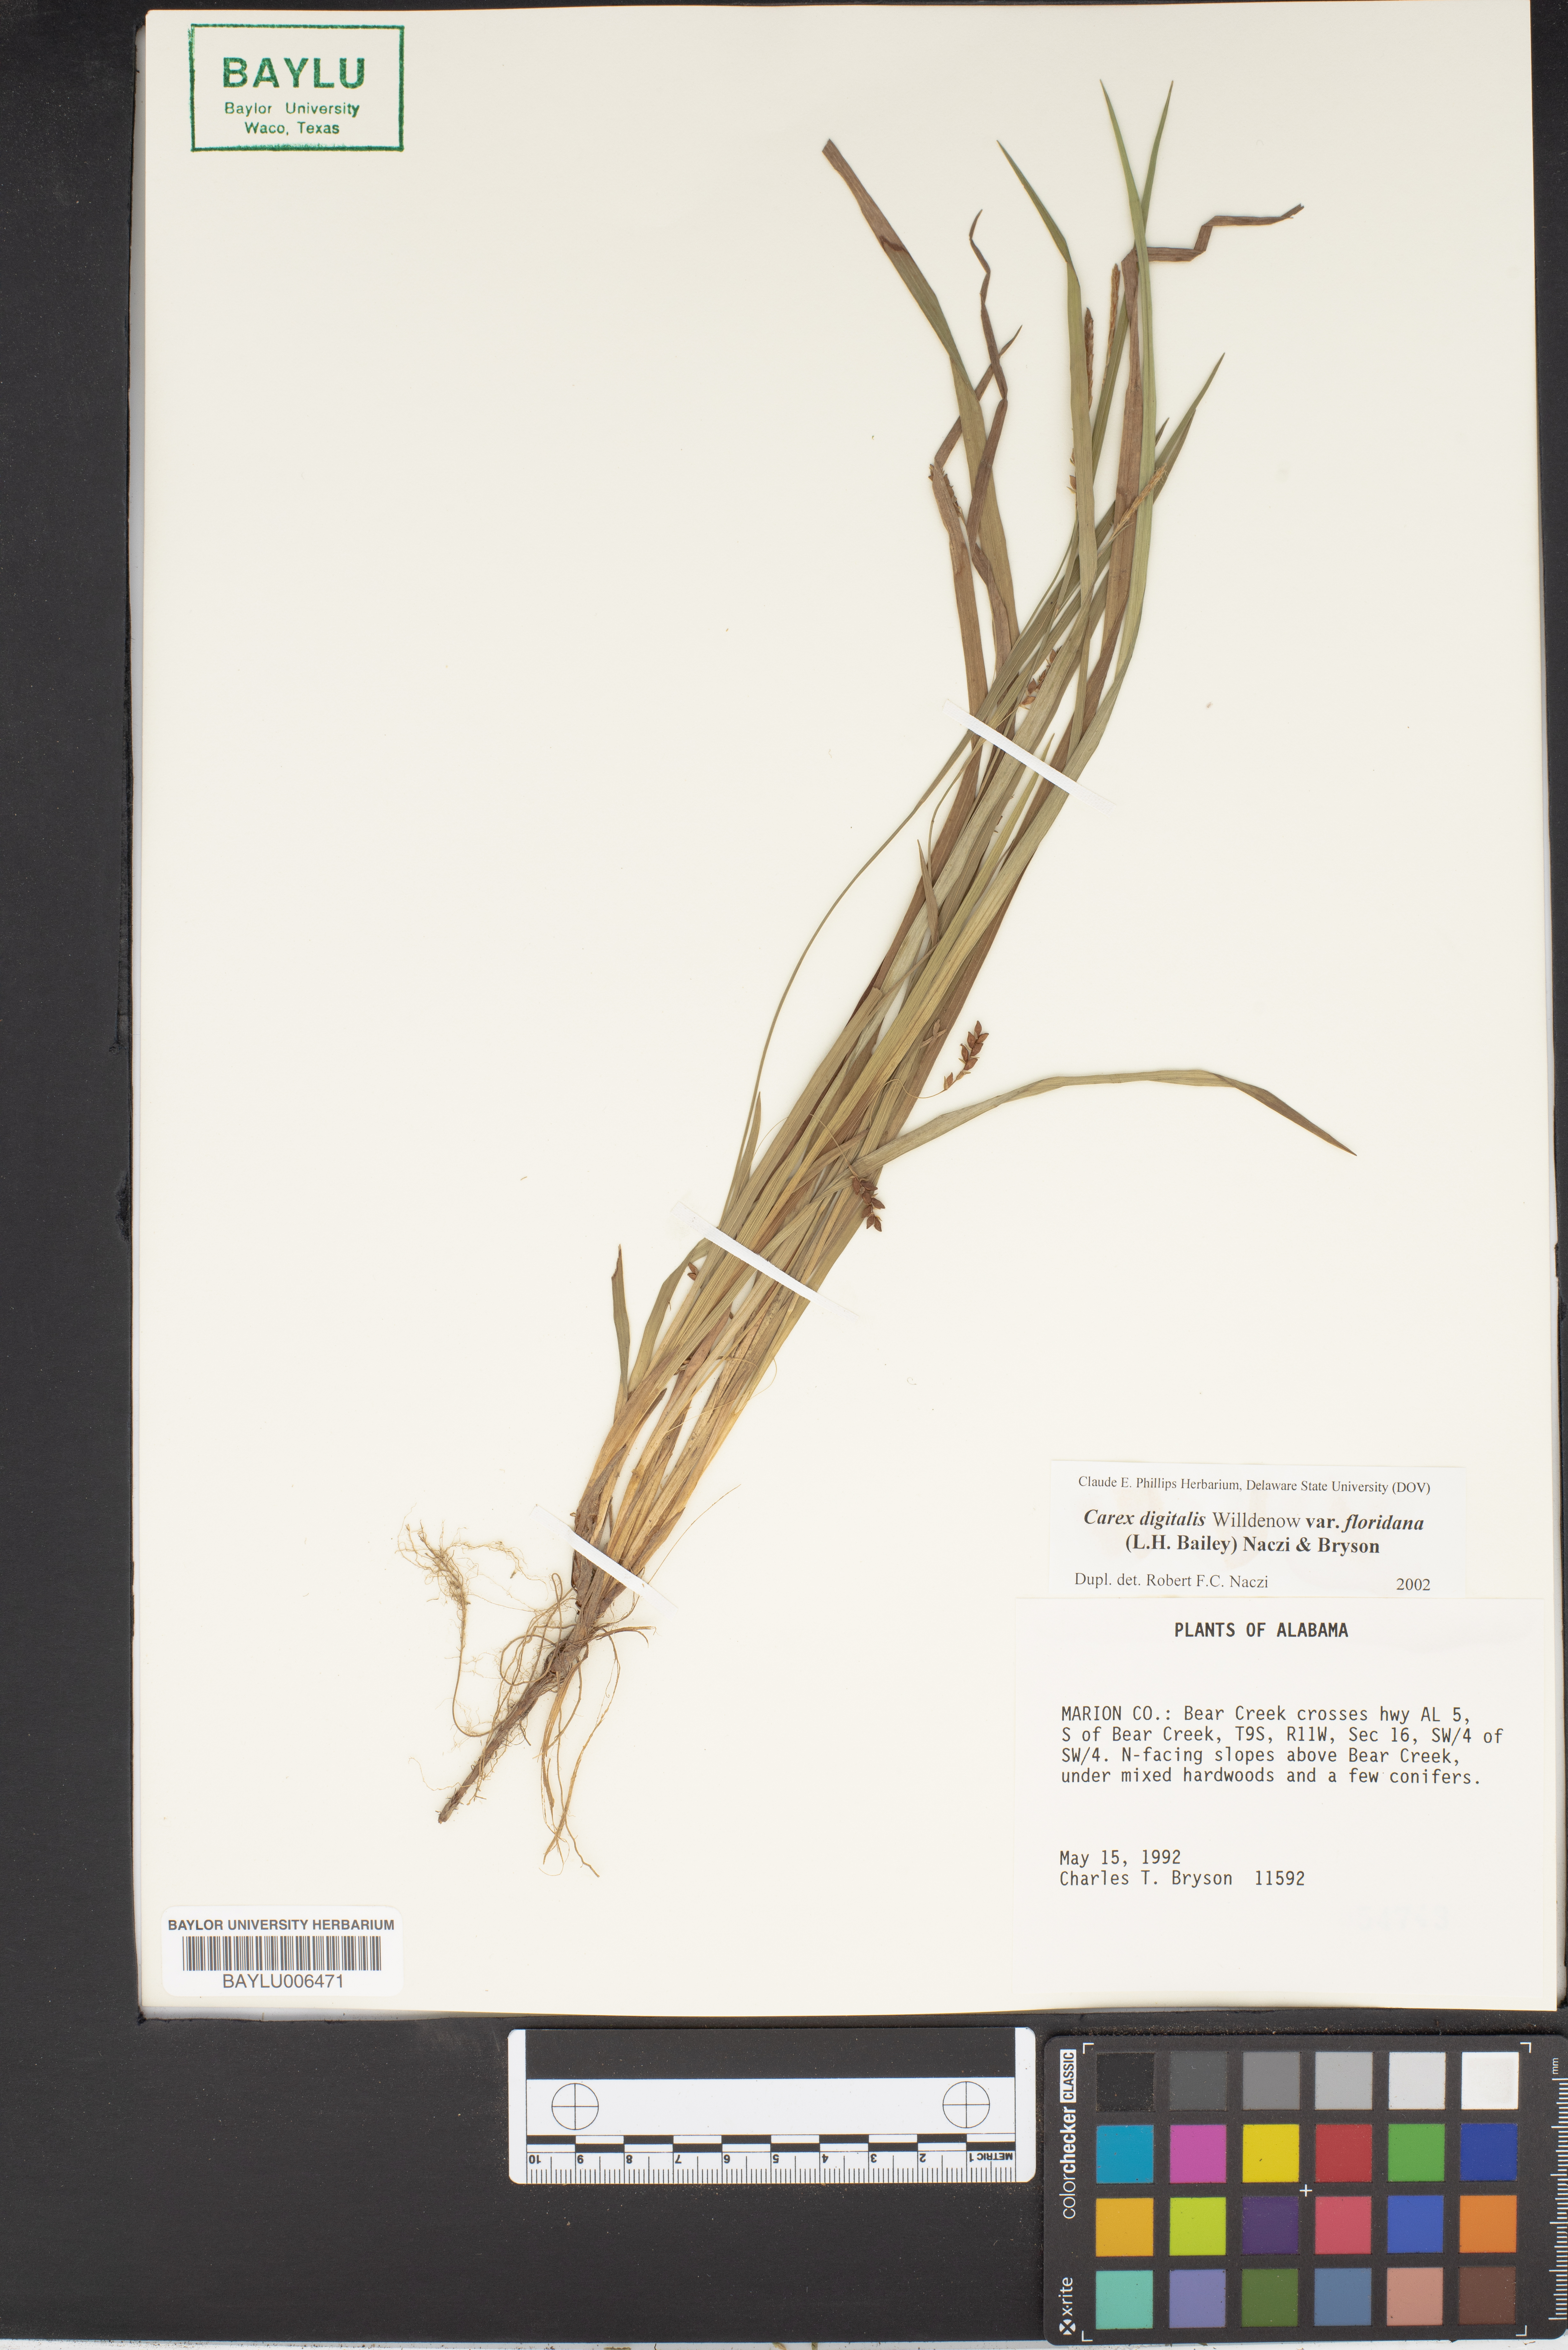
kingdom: Plantae
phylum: Tracheophyta
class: Liliopsida
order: Poales
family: Cyperaceae
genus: Carex
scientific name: Carex digitalis
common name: Slender wood sedge
